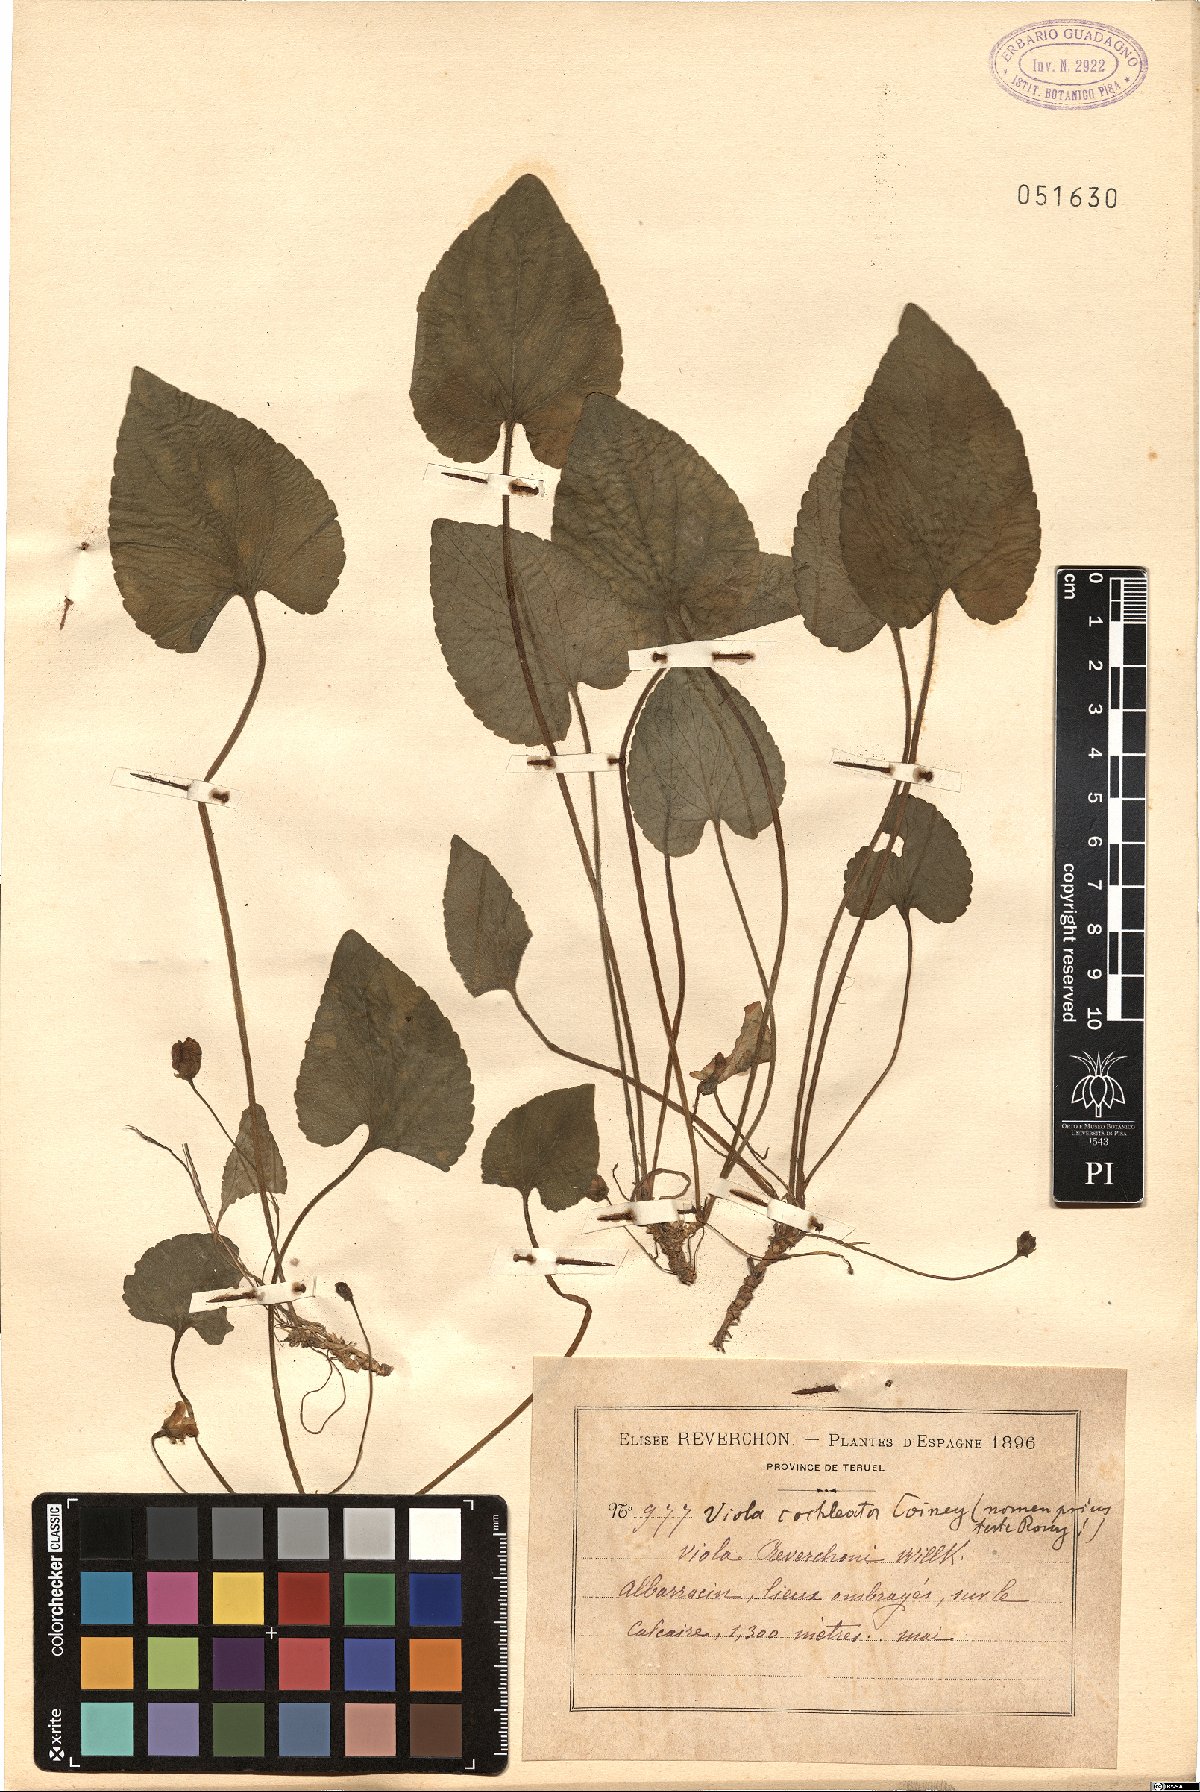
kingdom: Plantae
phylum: Tracheophyta
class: Magnoliopsida
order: Malpighiales
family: Violaceae
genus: Viola
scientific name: Viola cochleata
